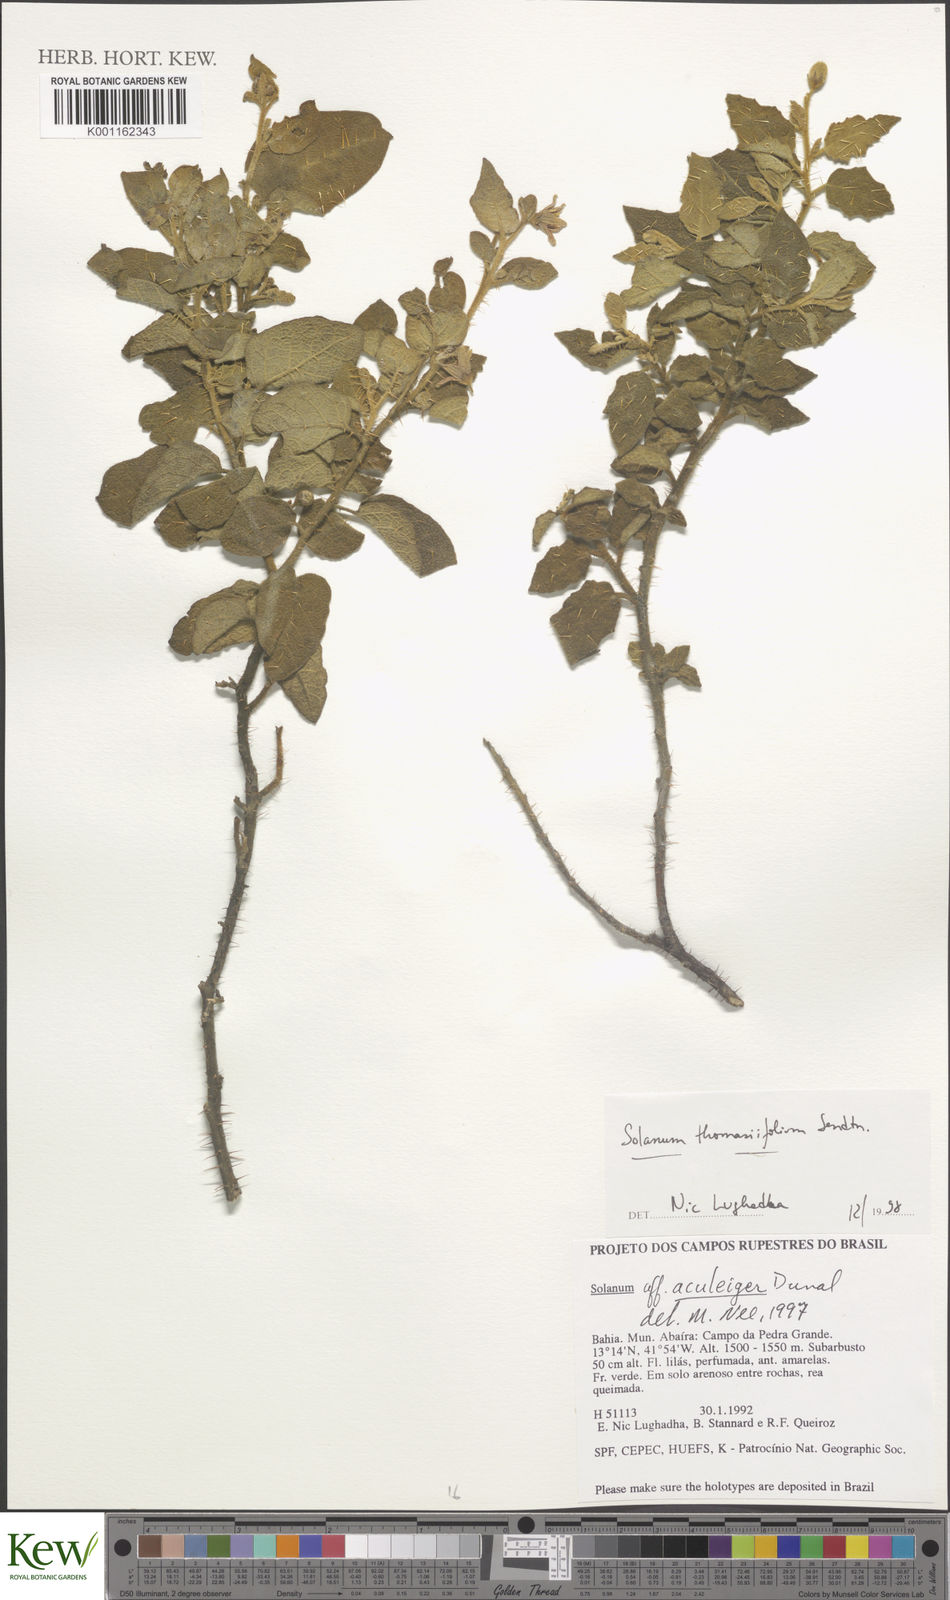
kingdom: Plantae
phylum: Tracheophyta
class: Magnoliopsida
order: Solanales
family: Solanaceae
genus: Solanum
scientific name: Solanum thomasiifolium
